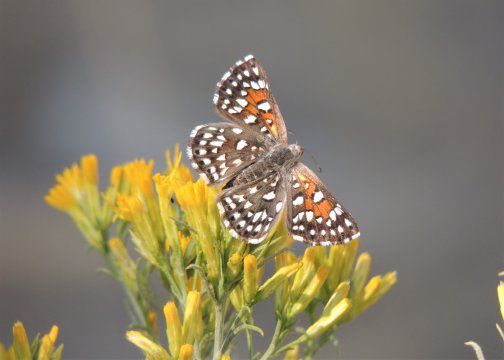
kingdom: Animalia
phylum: Arthropoda
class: Insecta
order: Lepidoptera
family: Riodinidae
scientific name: Riodinidae
